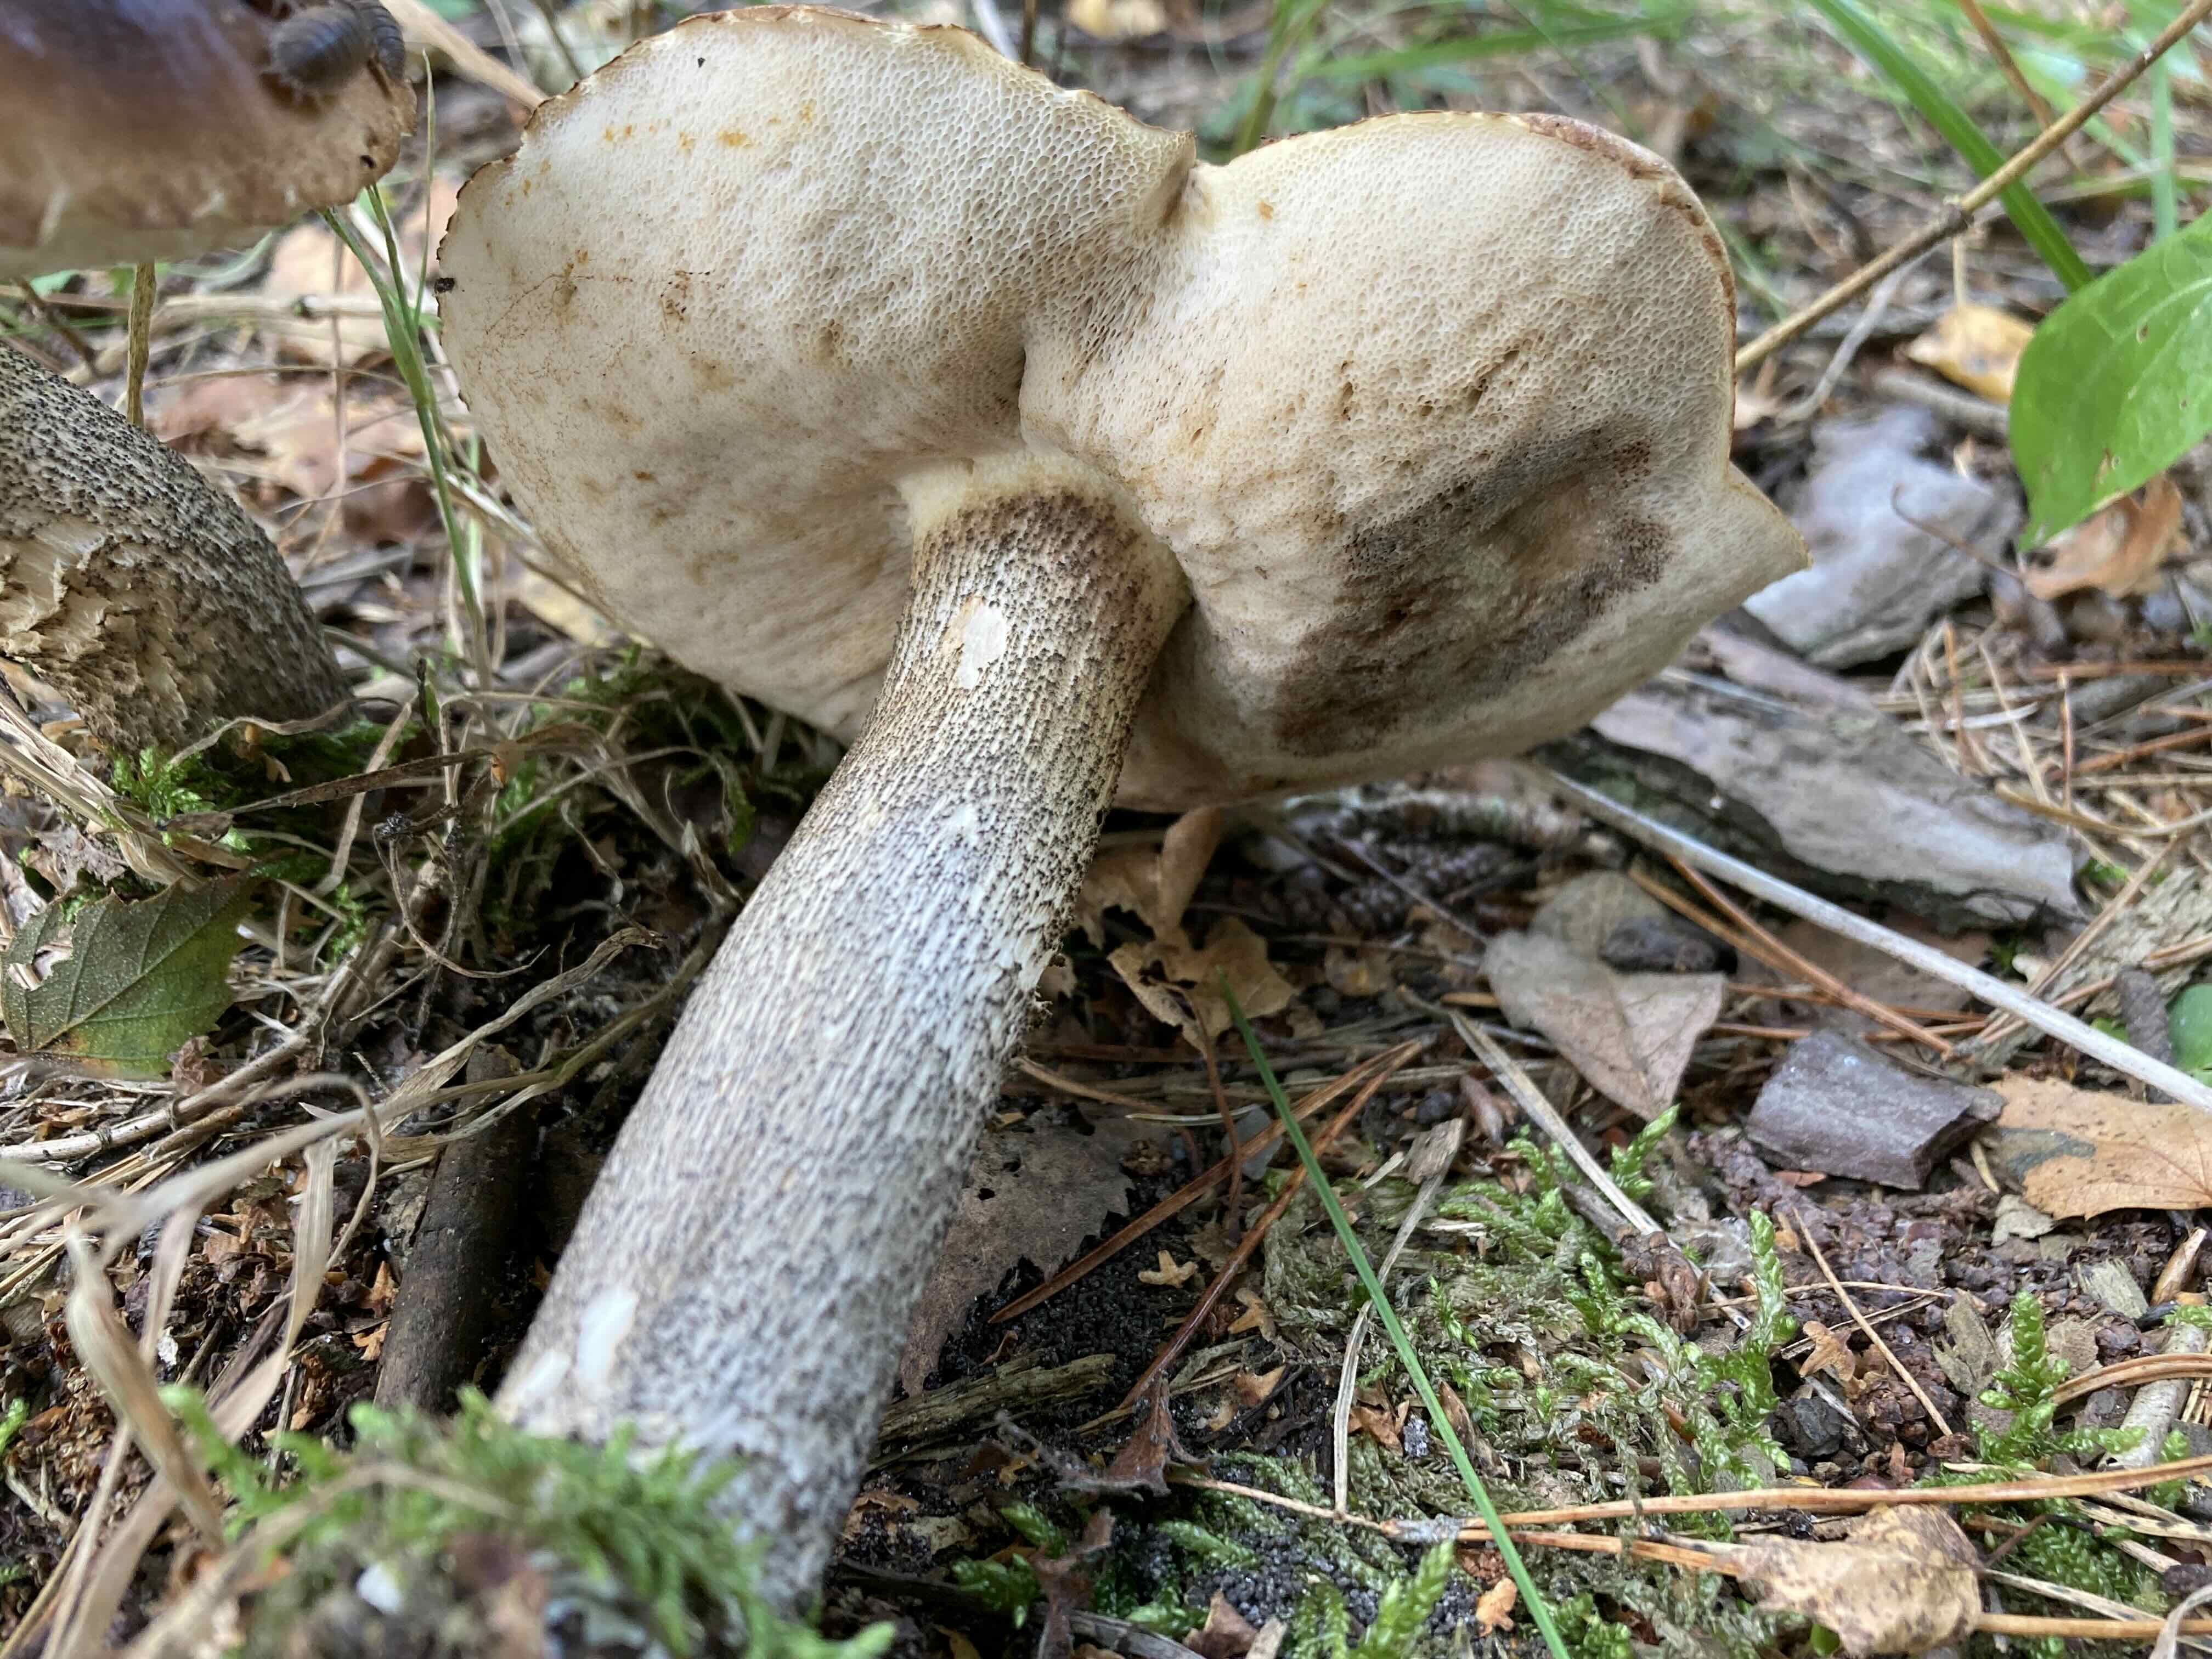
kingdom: Fungi
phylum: Basidiomycota
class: Agaricomycetes
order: Boletales
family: Boletaceae
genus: Leccinum
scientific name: Leccinum scabrum
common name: brun skælrørhat
